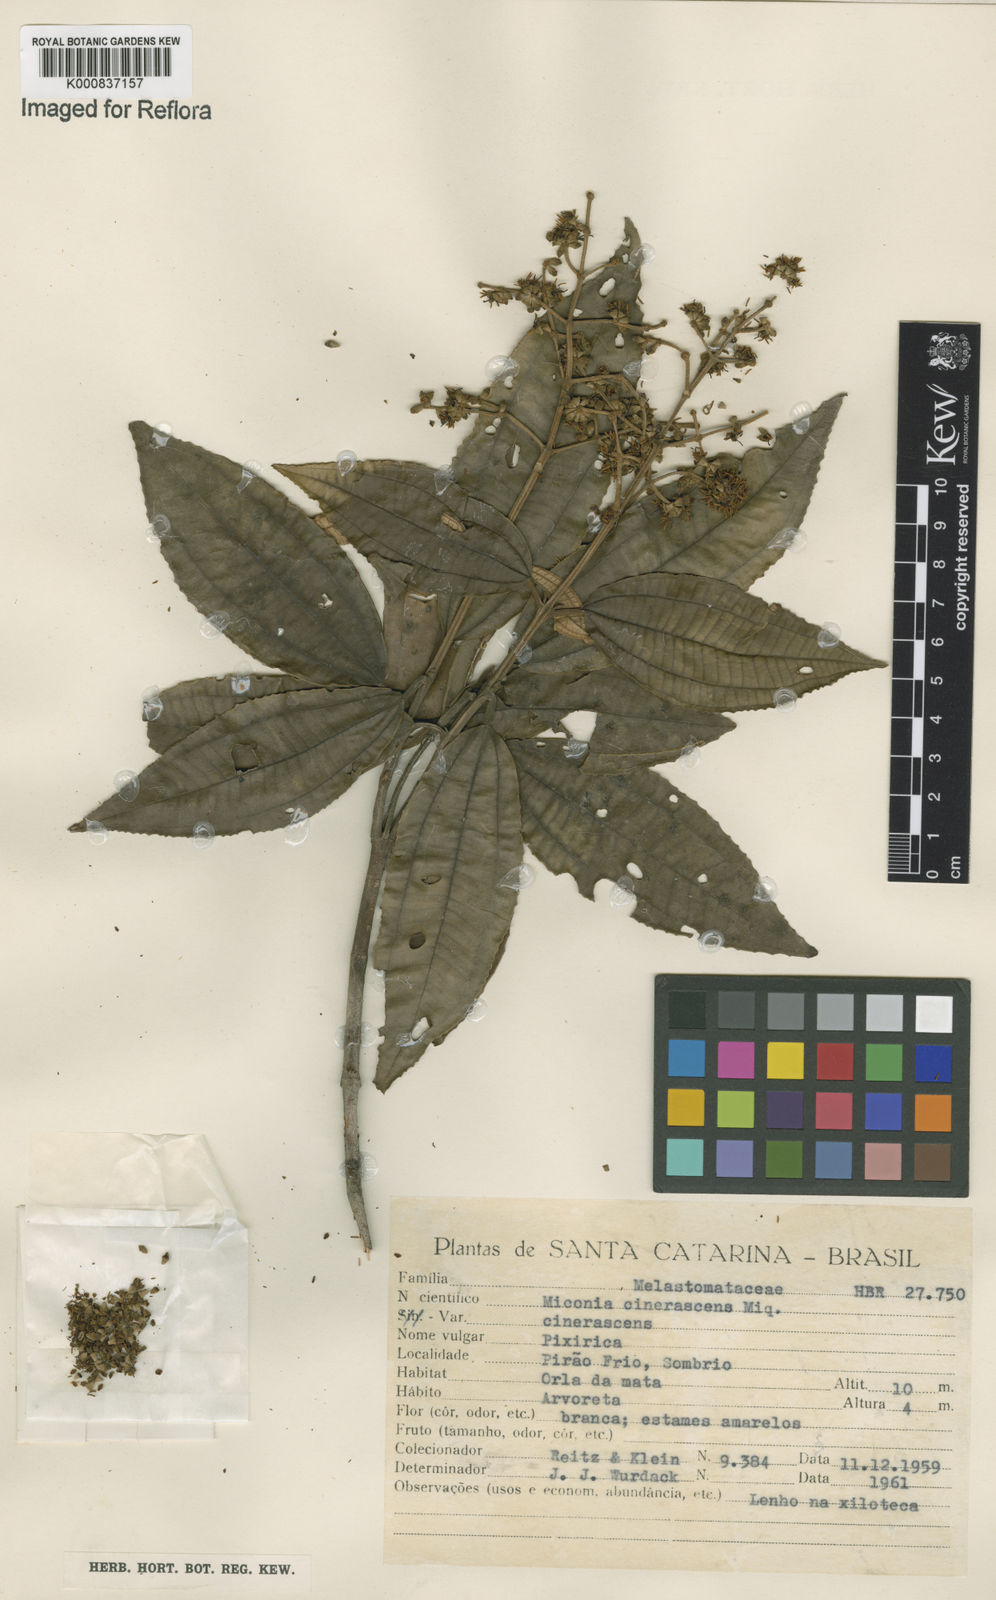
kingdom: Plantae
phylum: Tracheophyta
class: Magnoliopsida
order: Myrtales
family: Melastomataceae
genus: Miconia
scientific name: Miconia cinerascens
